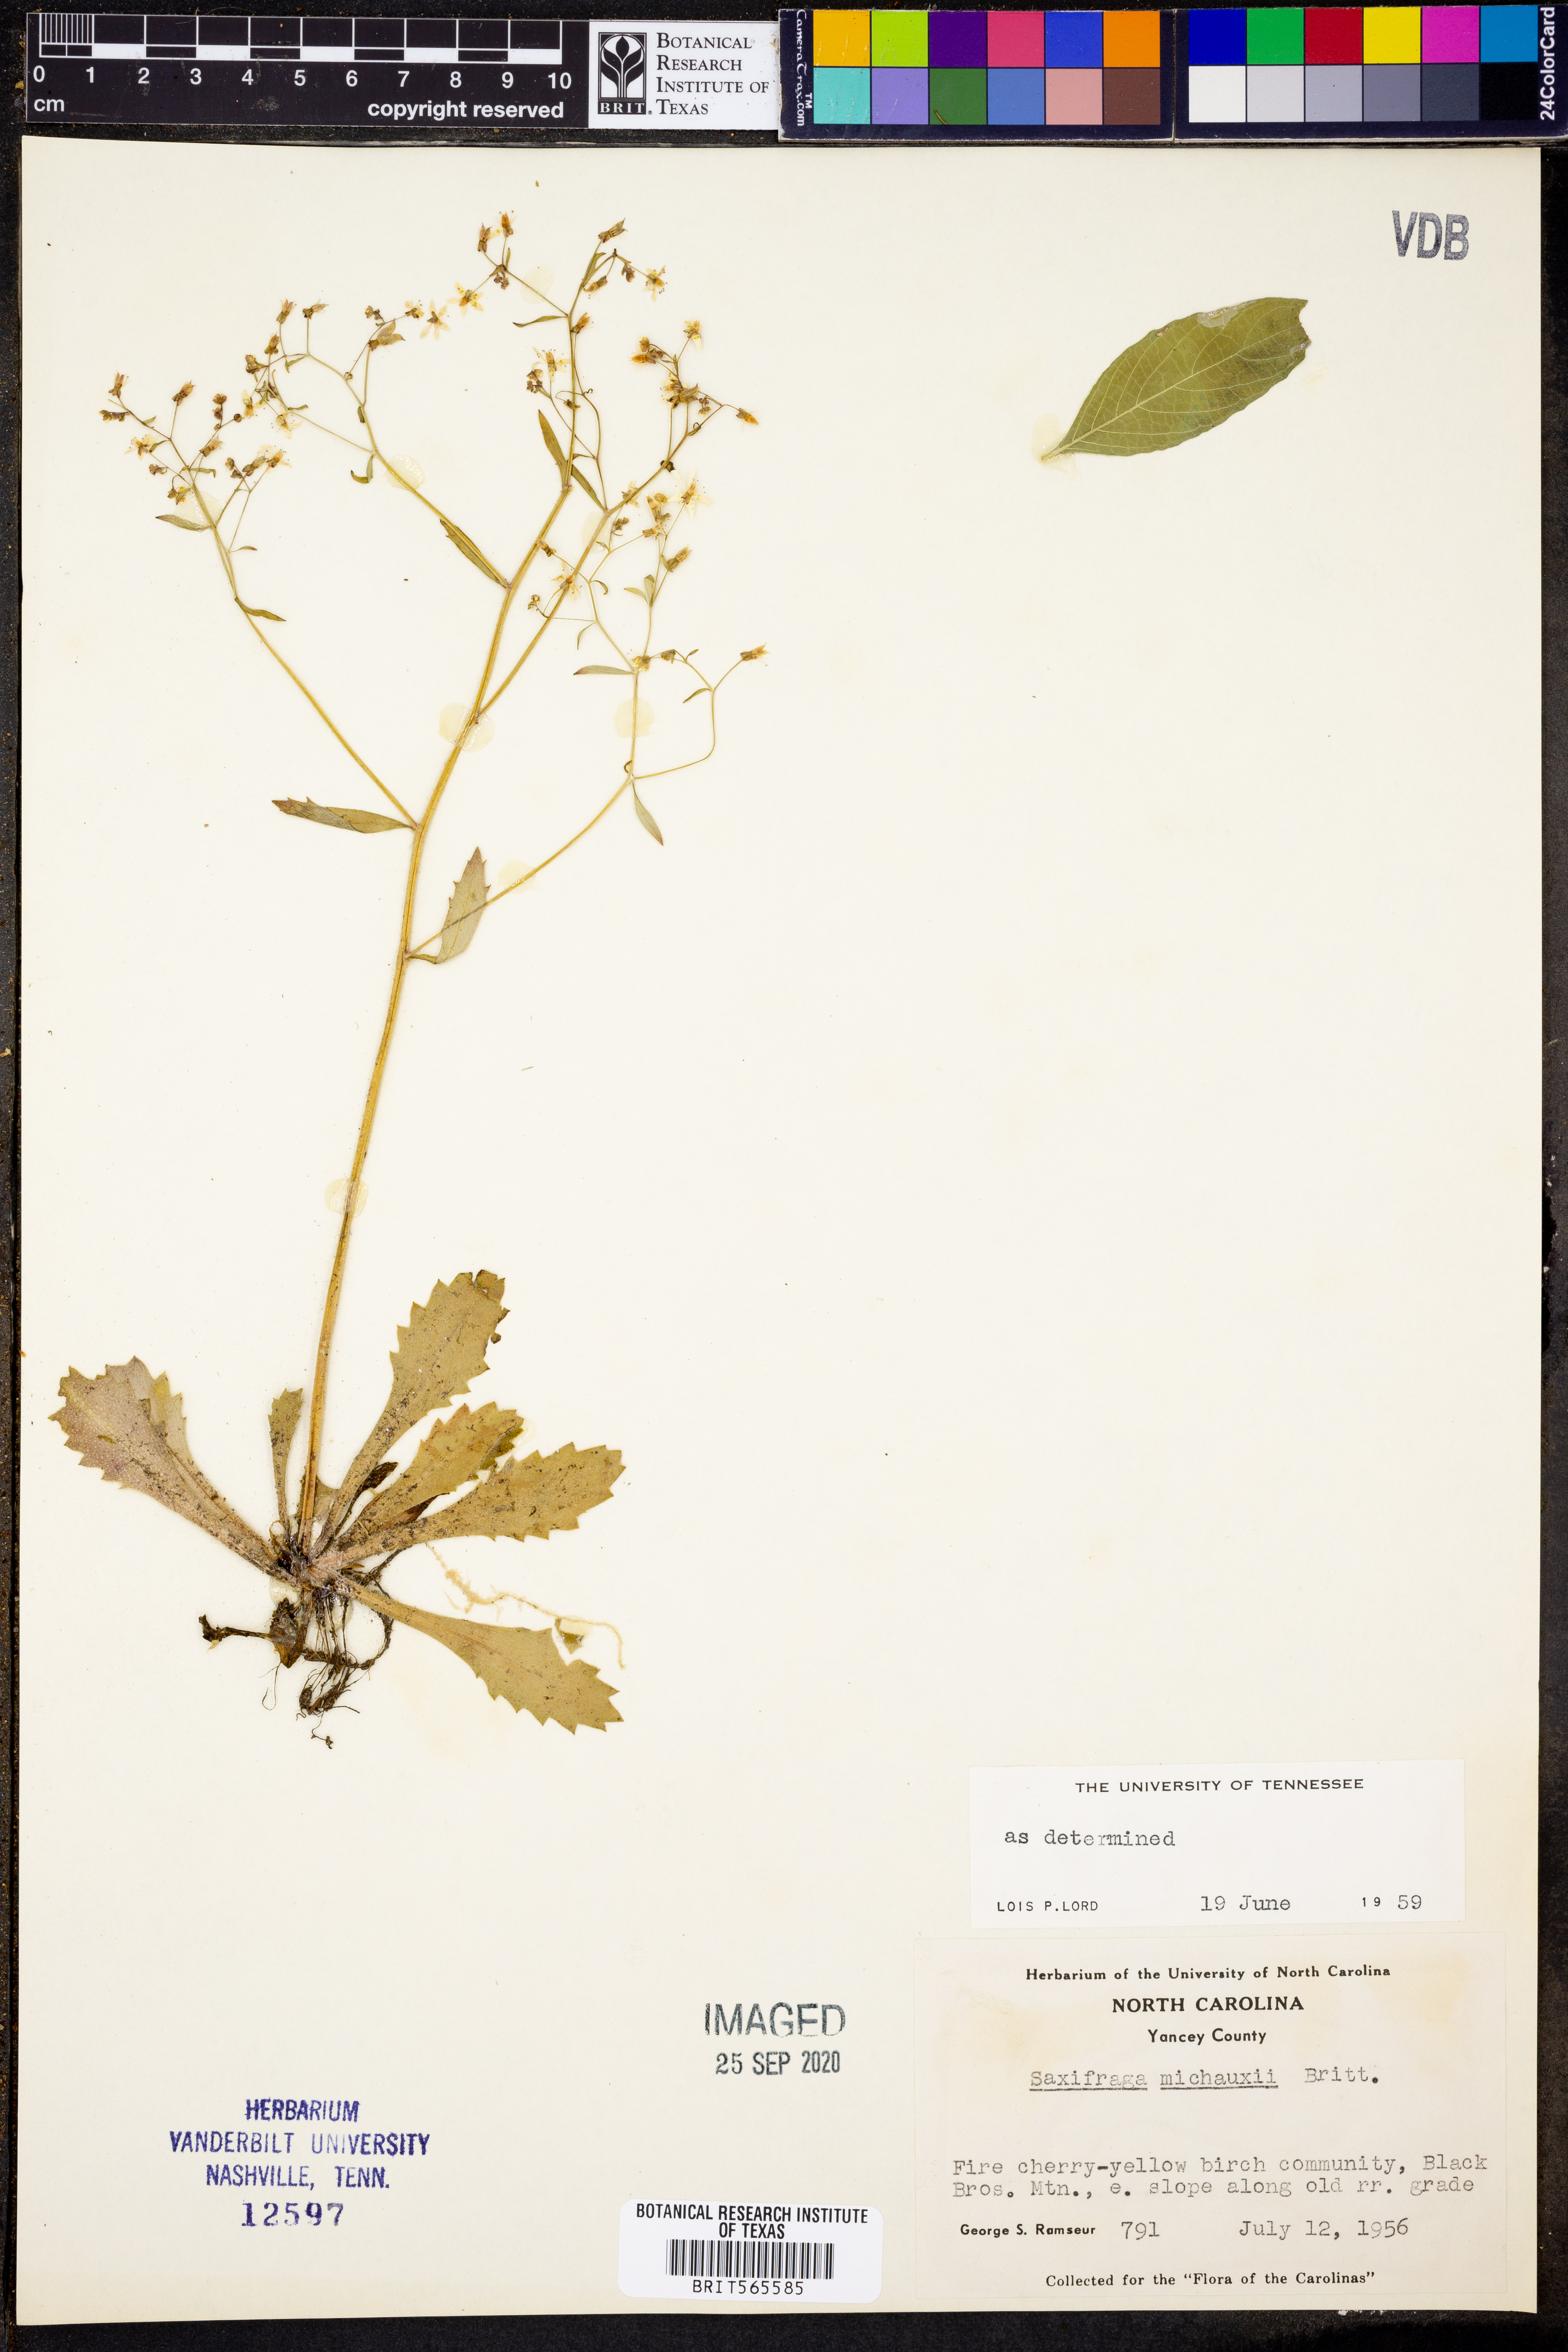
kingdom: Plantae
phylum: Tracheophyta
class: Magnoliopsida
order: Saxifragales
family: Saxifragaceae
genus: Micranthes
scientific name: Micranthes petiolaris
